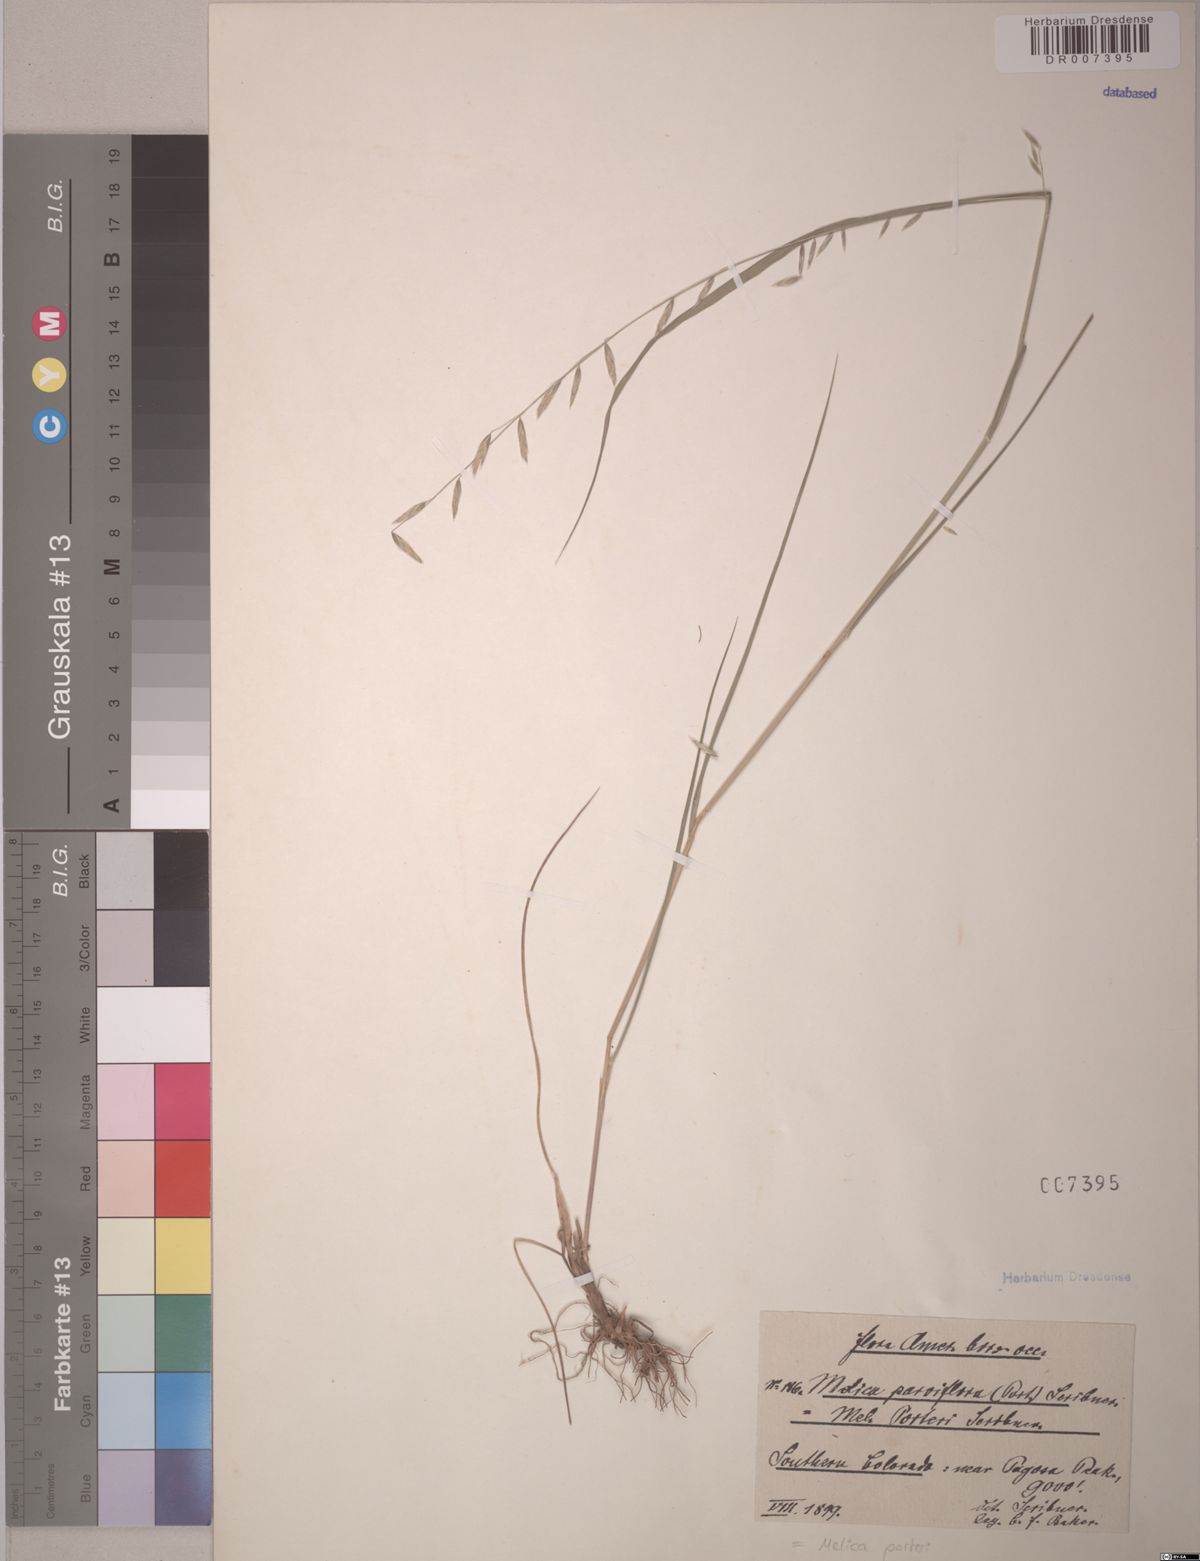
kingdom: Plantae
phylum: Tracheophyta
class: Liliopsida
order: Poales
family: Poaceae
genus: Melica
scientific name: Melica porteri
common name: Porter's melic
